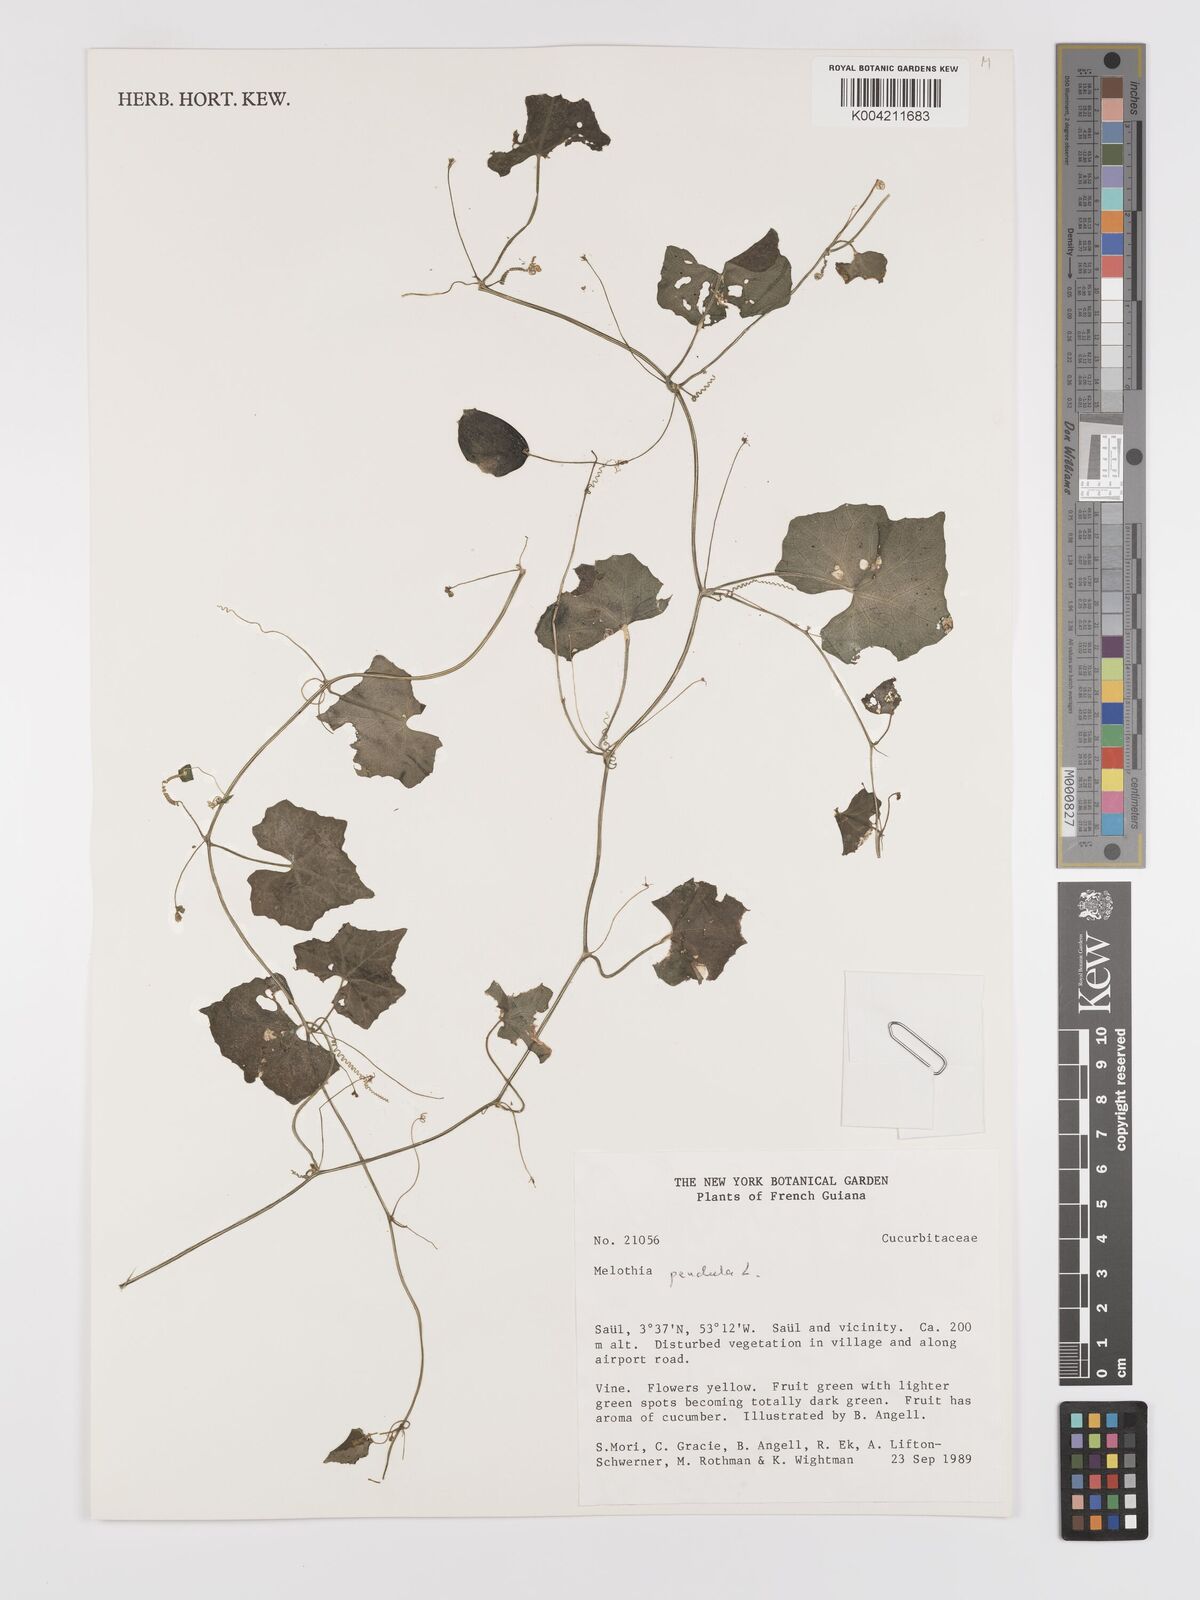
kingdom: Plantae
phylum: Tracheophyta
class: Magnoliopsida
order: Cucurbitales
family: Cucurbitaceae
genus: Melothria
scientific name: Melothria pendula
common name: Creeping-cucumber
